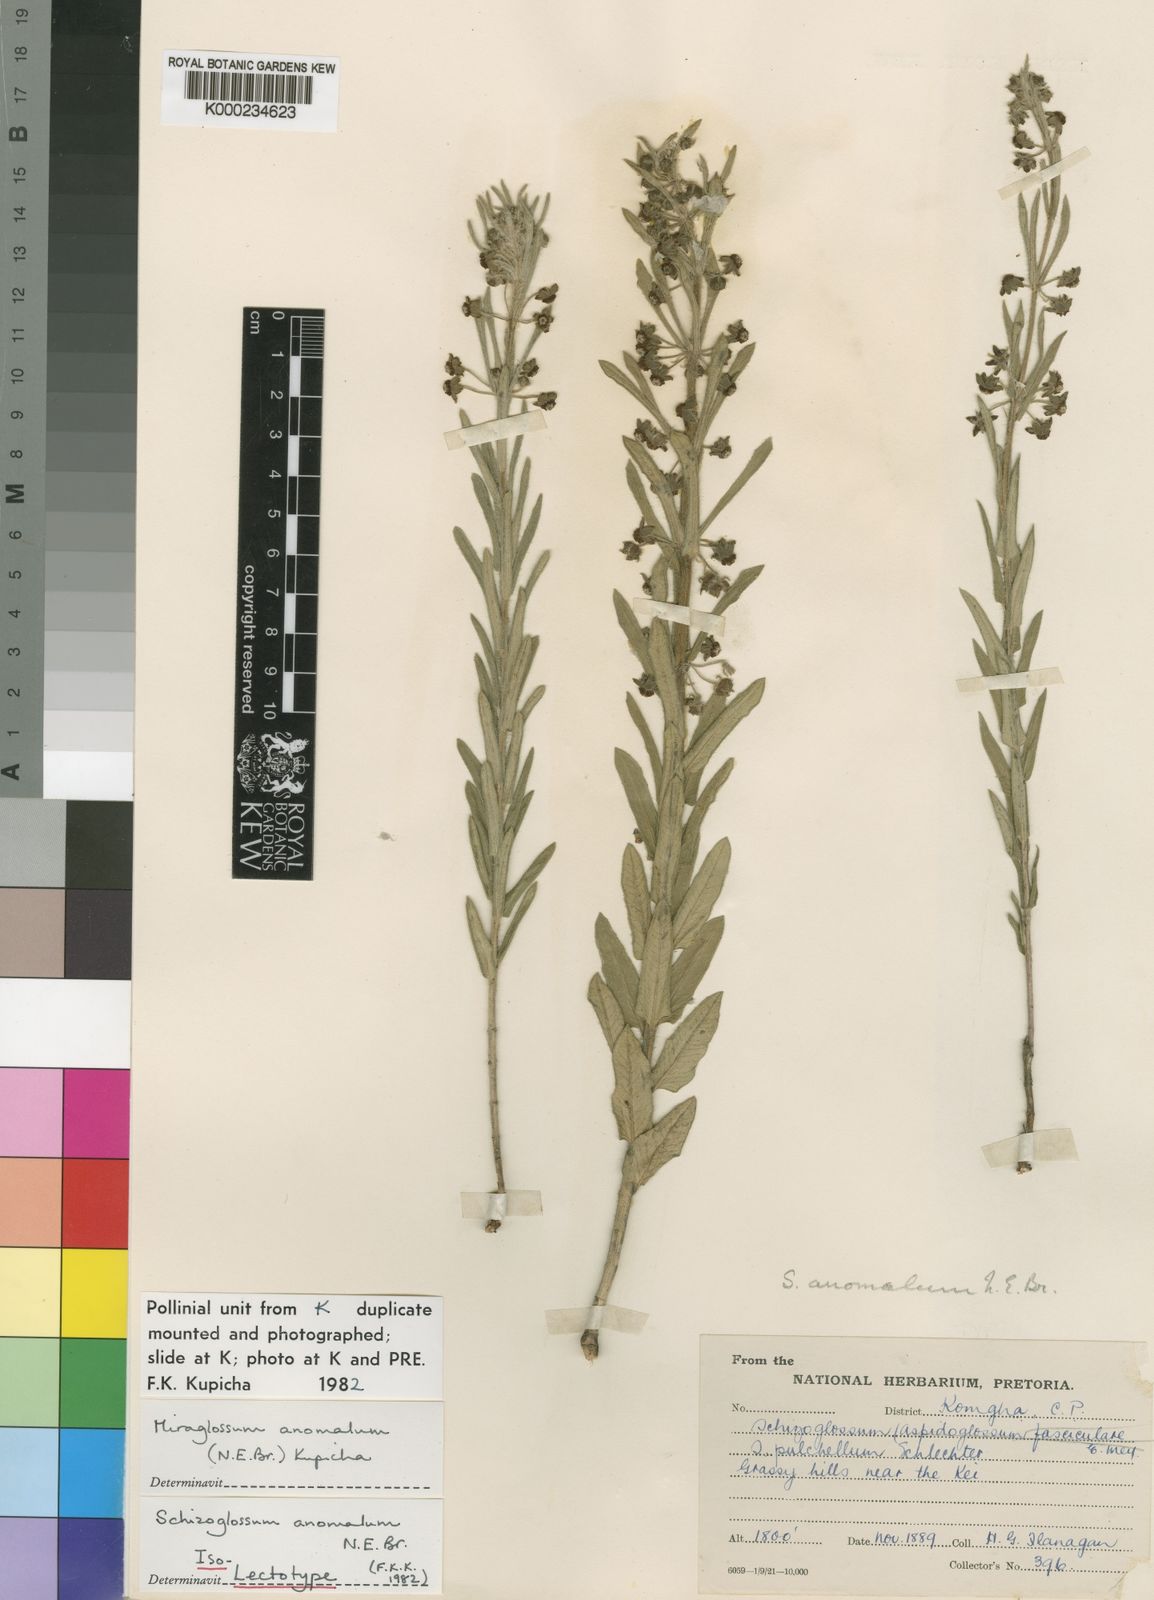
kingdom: Plantae
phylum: Tracheophyta
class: Magnoliopsida
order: Gentianales
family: Apocynaceae
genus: Miraglossum
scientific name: Miraglossum anomalum
